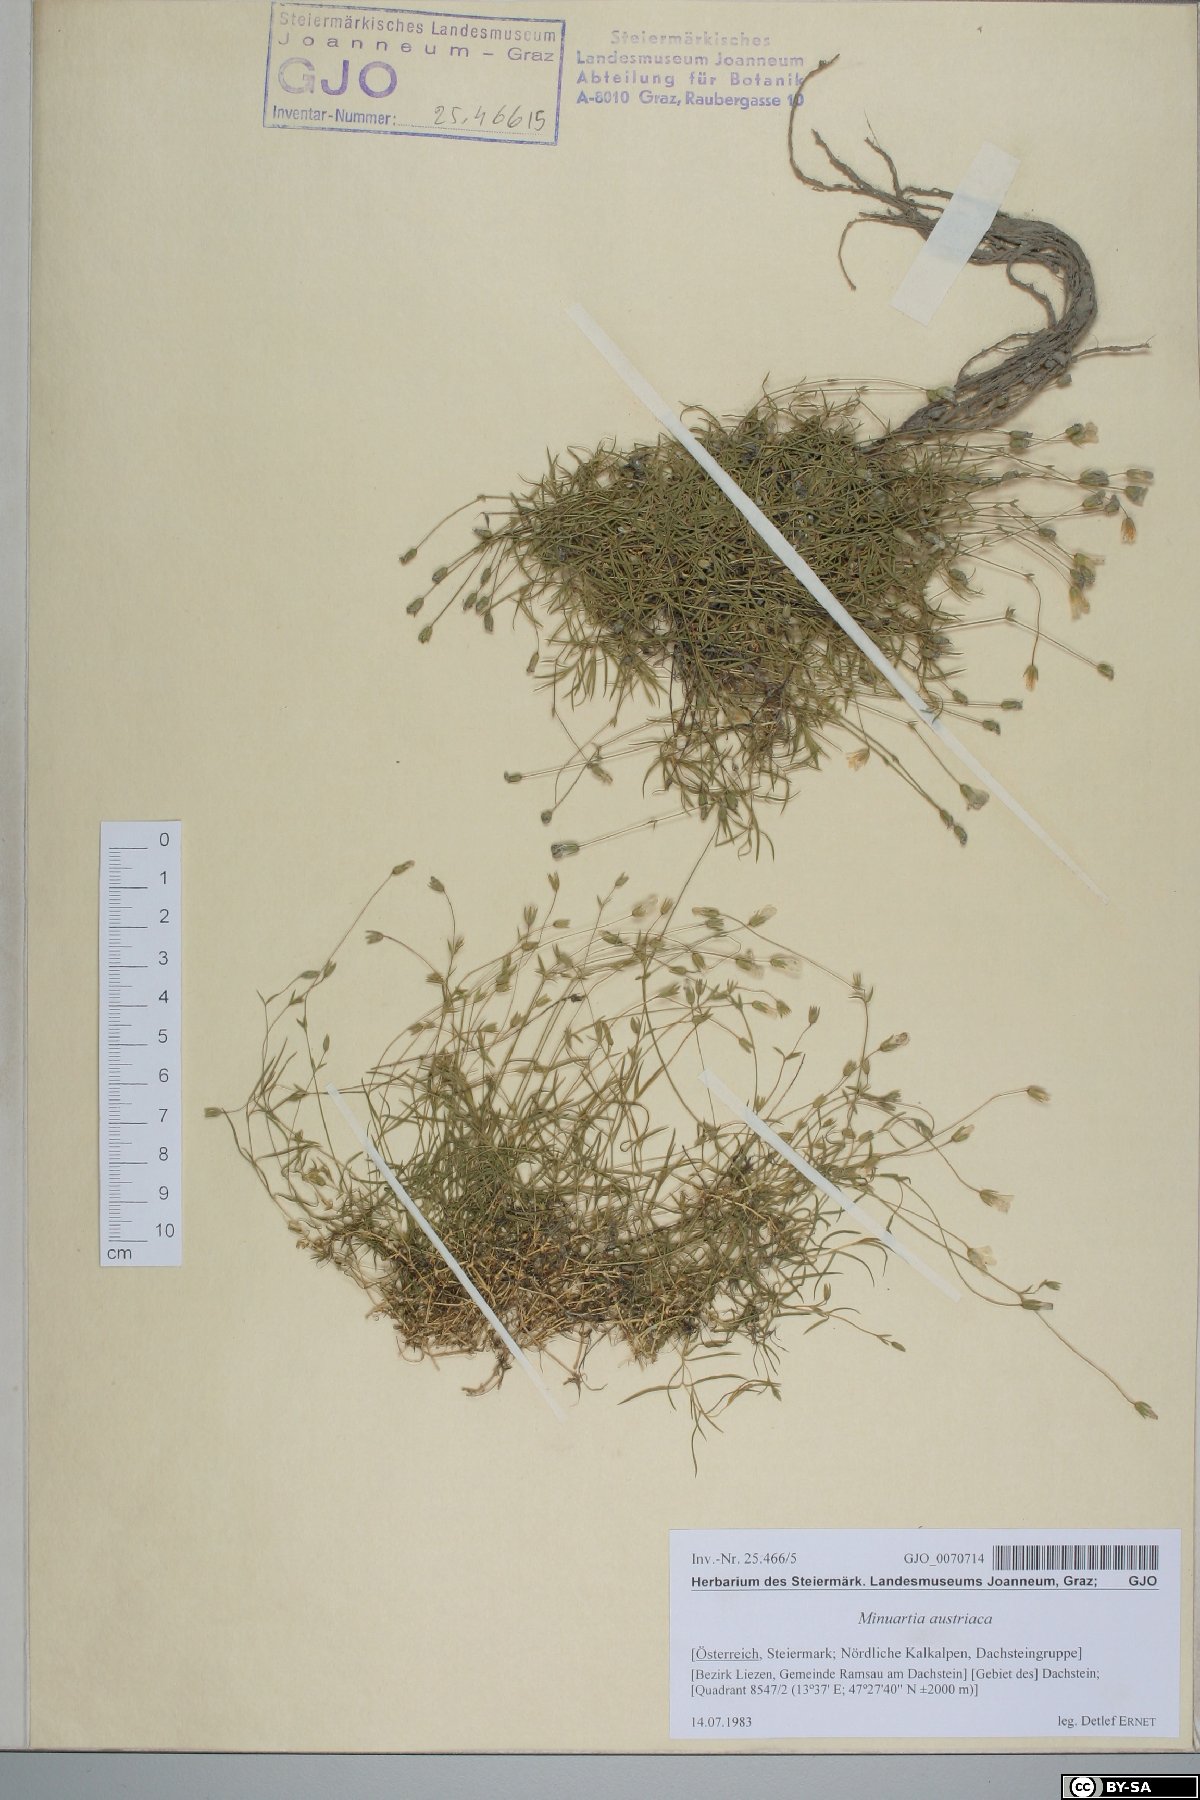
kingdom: Plantae
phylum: Tracheophyta
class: Magnoliopsida
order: Caryophyllales
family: Caryophyllaceae
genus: Sabulina
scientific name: Sabulina austriaca
